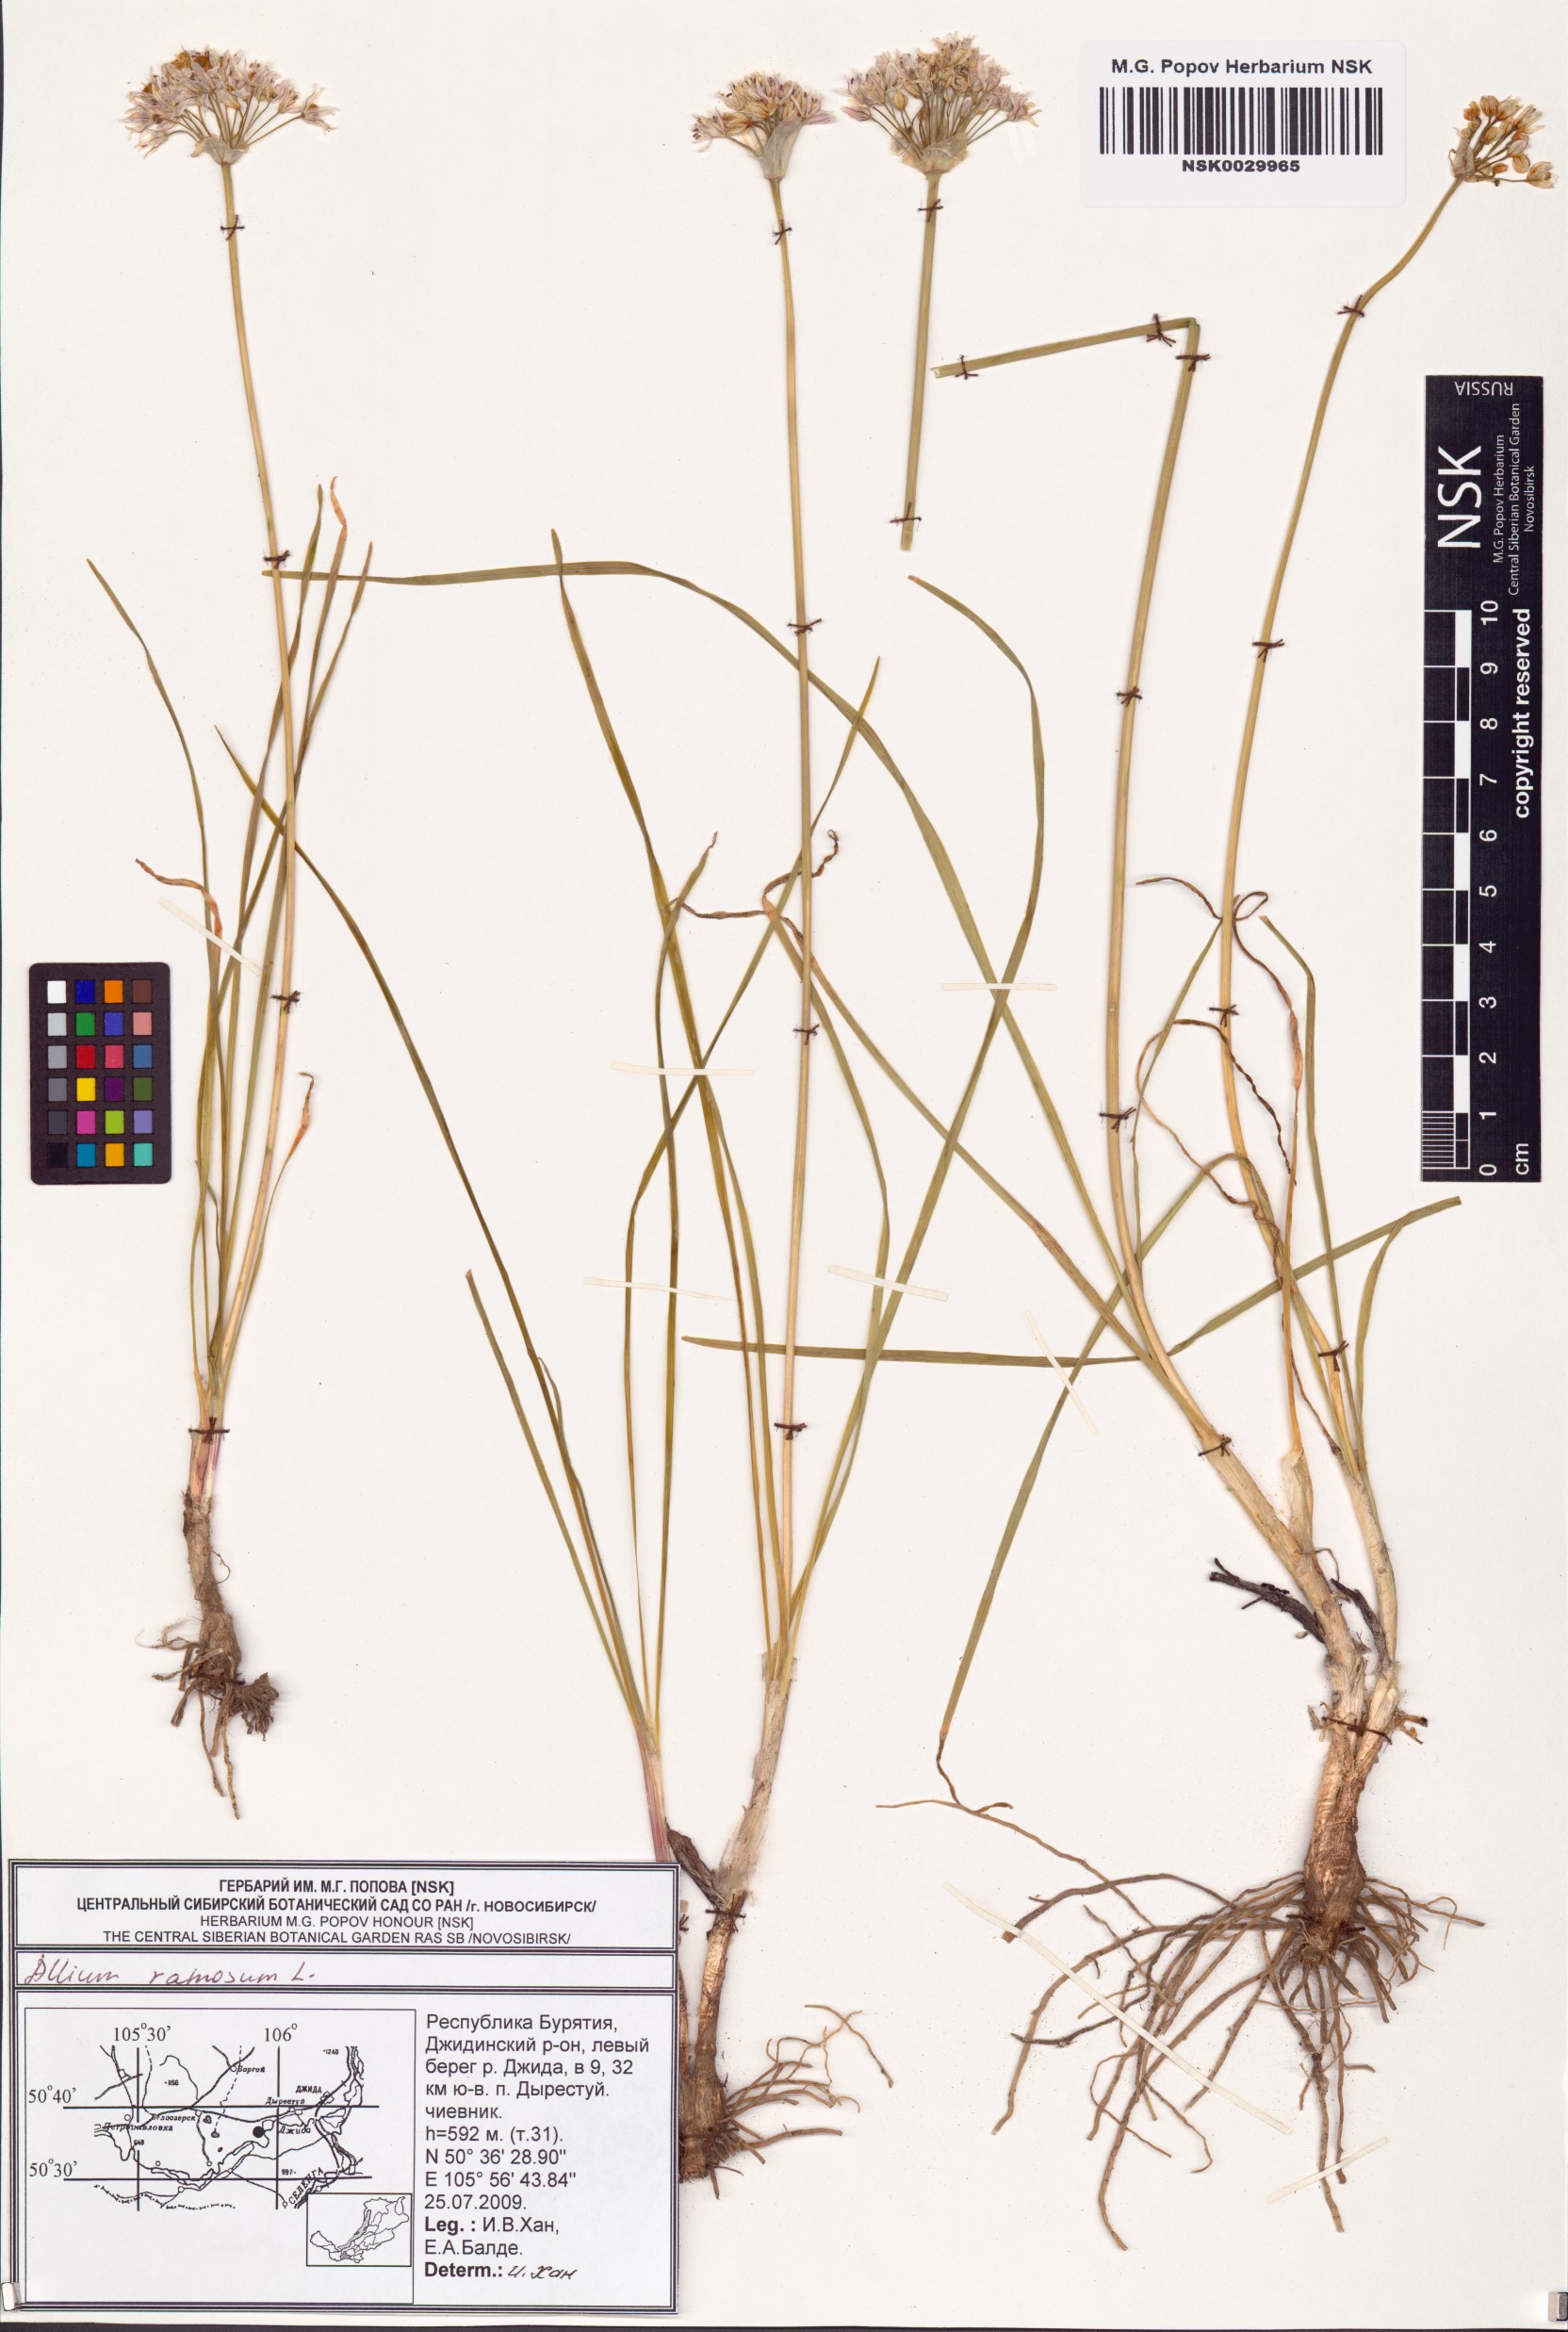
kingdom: Plantae
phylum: Tracheophyta
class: Liliopsida
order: Asparagales
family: Amaryllidaceae
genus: Allium
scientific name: Allium ramosum
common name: Fragrant garlic
